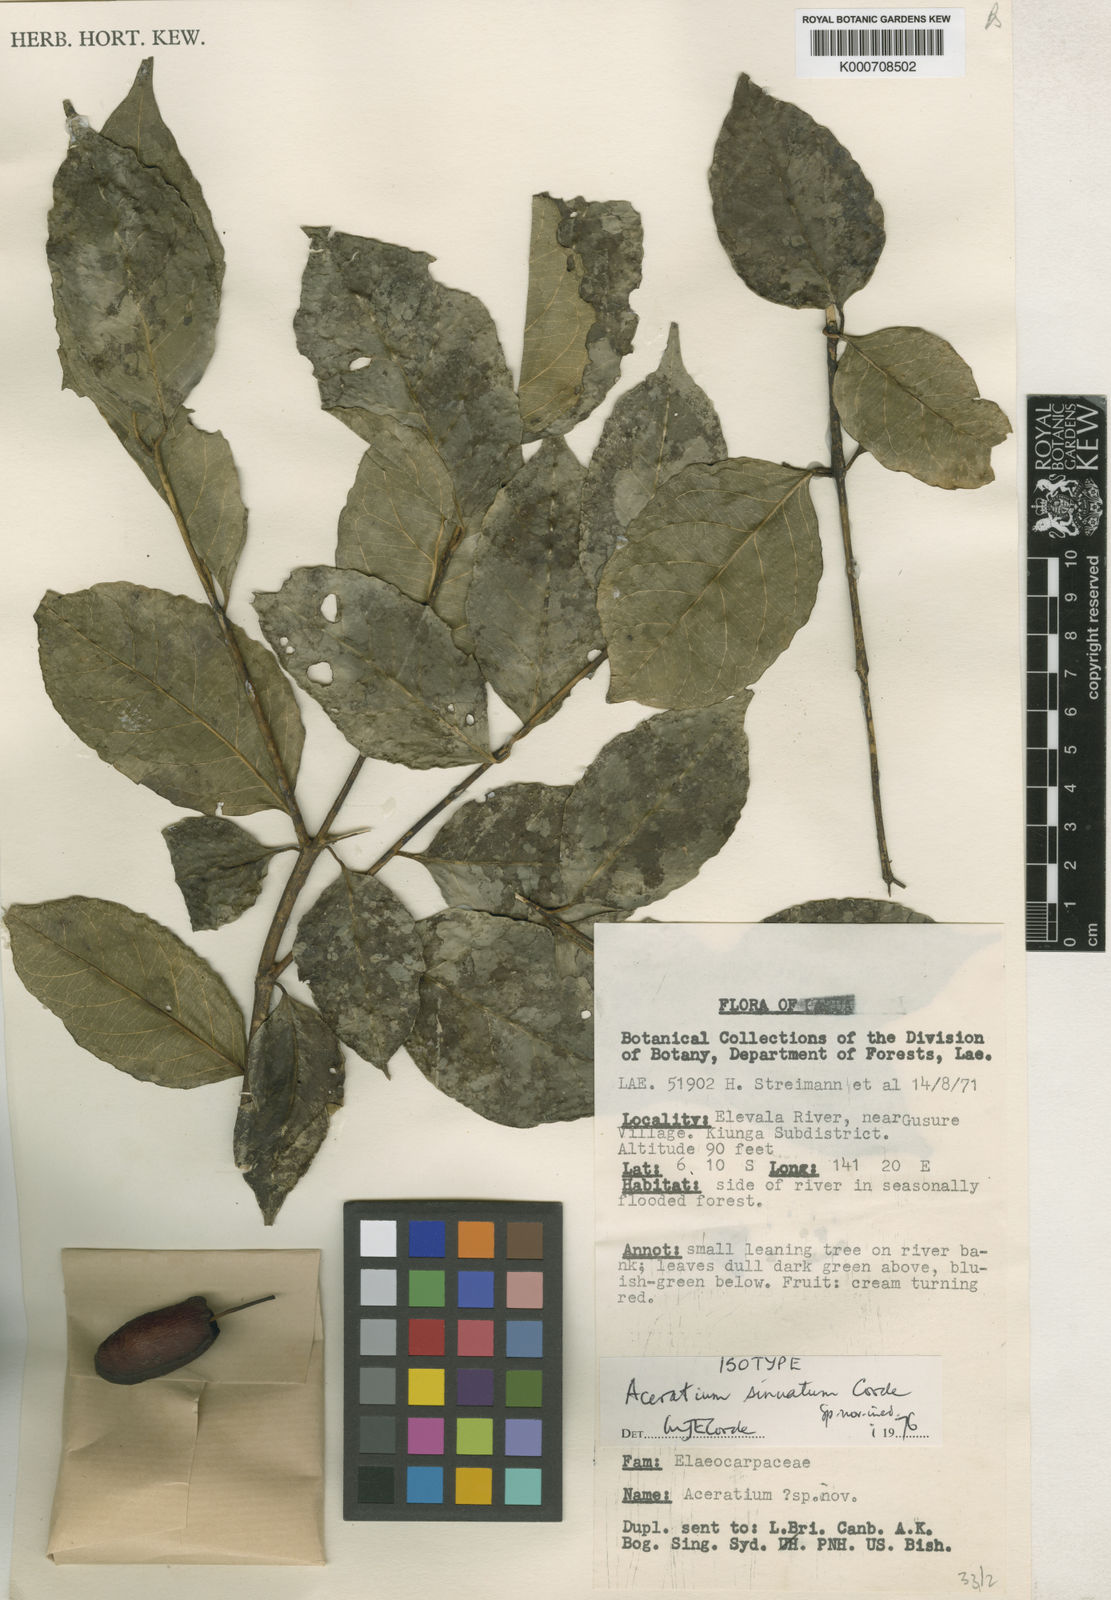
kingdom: Plantae
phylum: Tracheophyta
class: Magnoliopsida
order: Oxalidales
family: Elaeocarpaceae
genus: Aceratium
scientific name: Aceratium sinuatum
